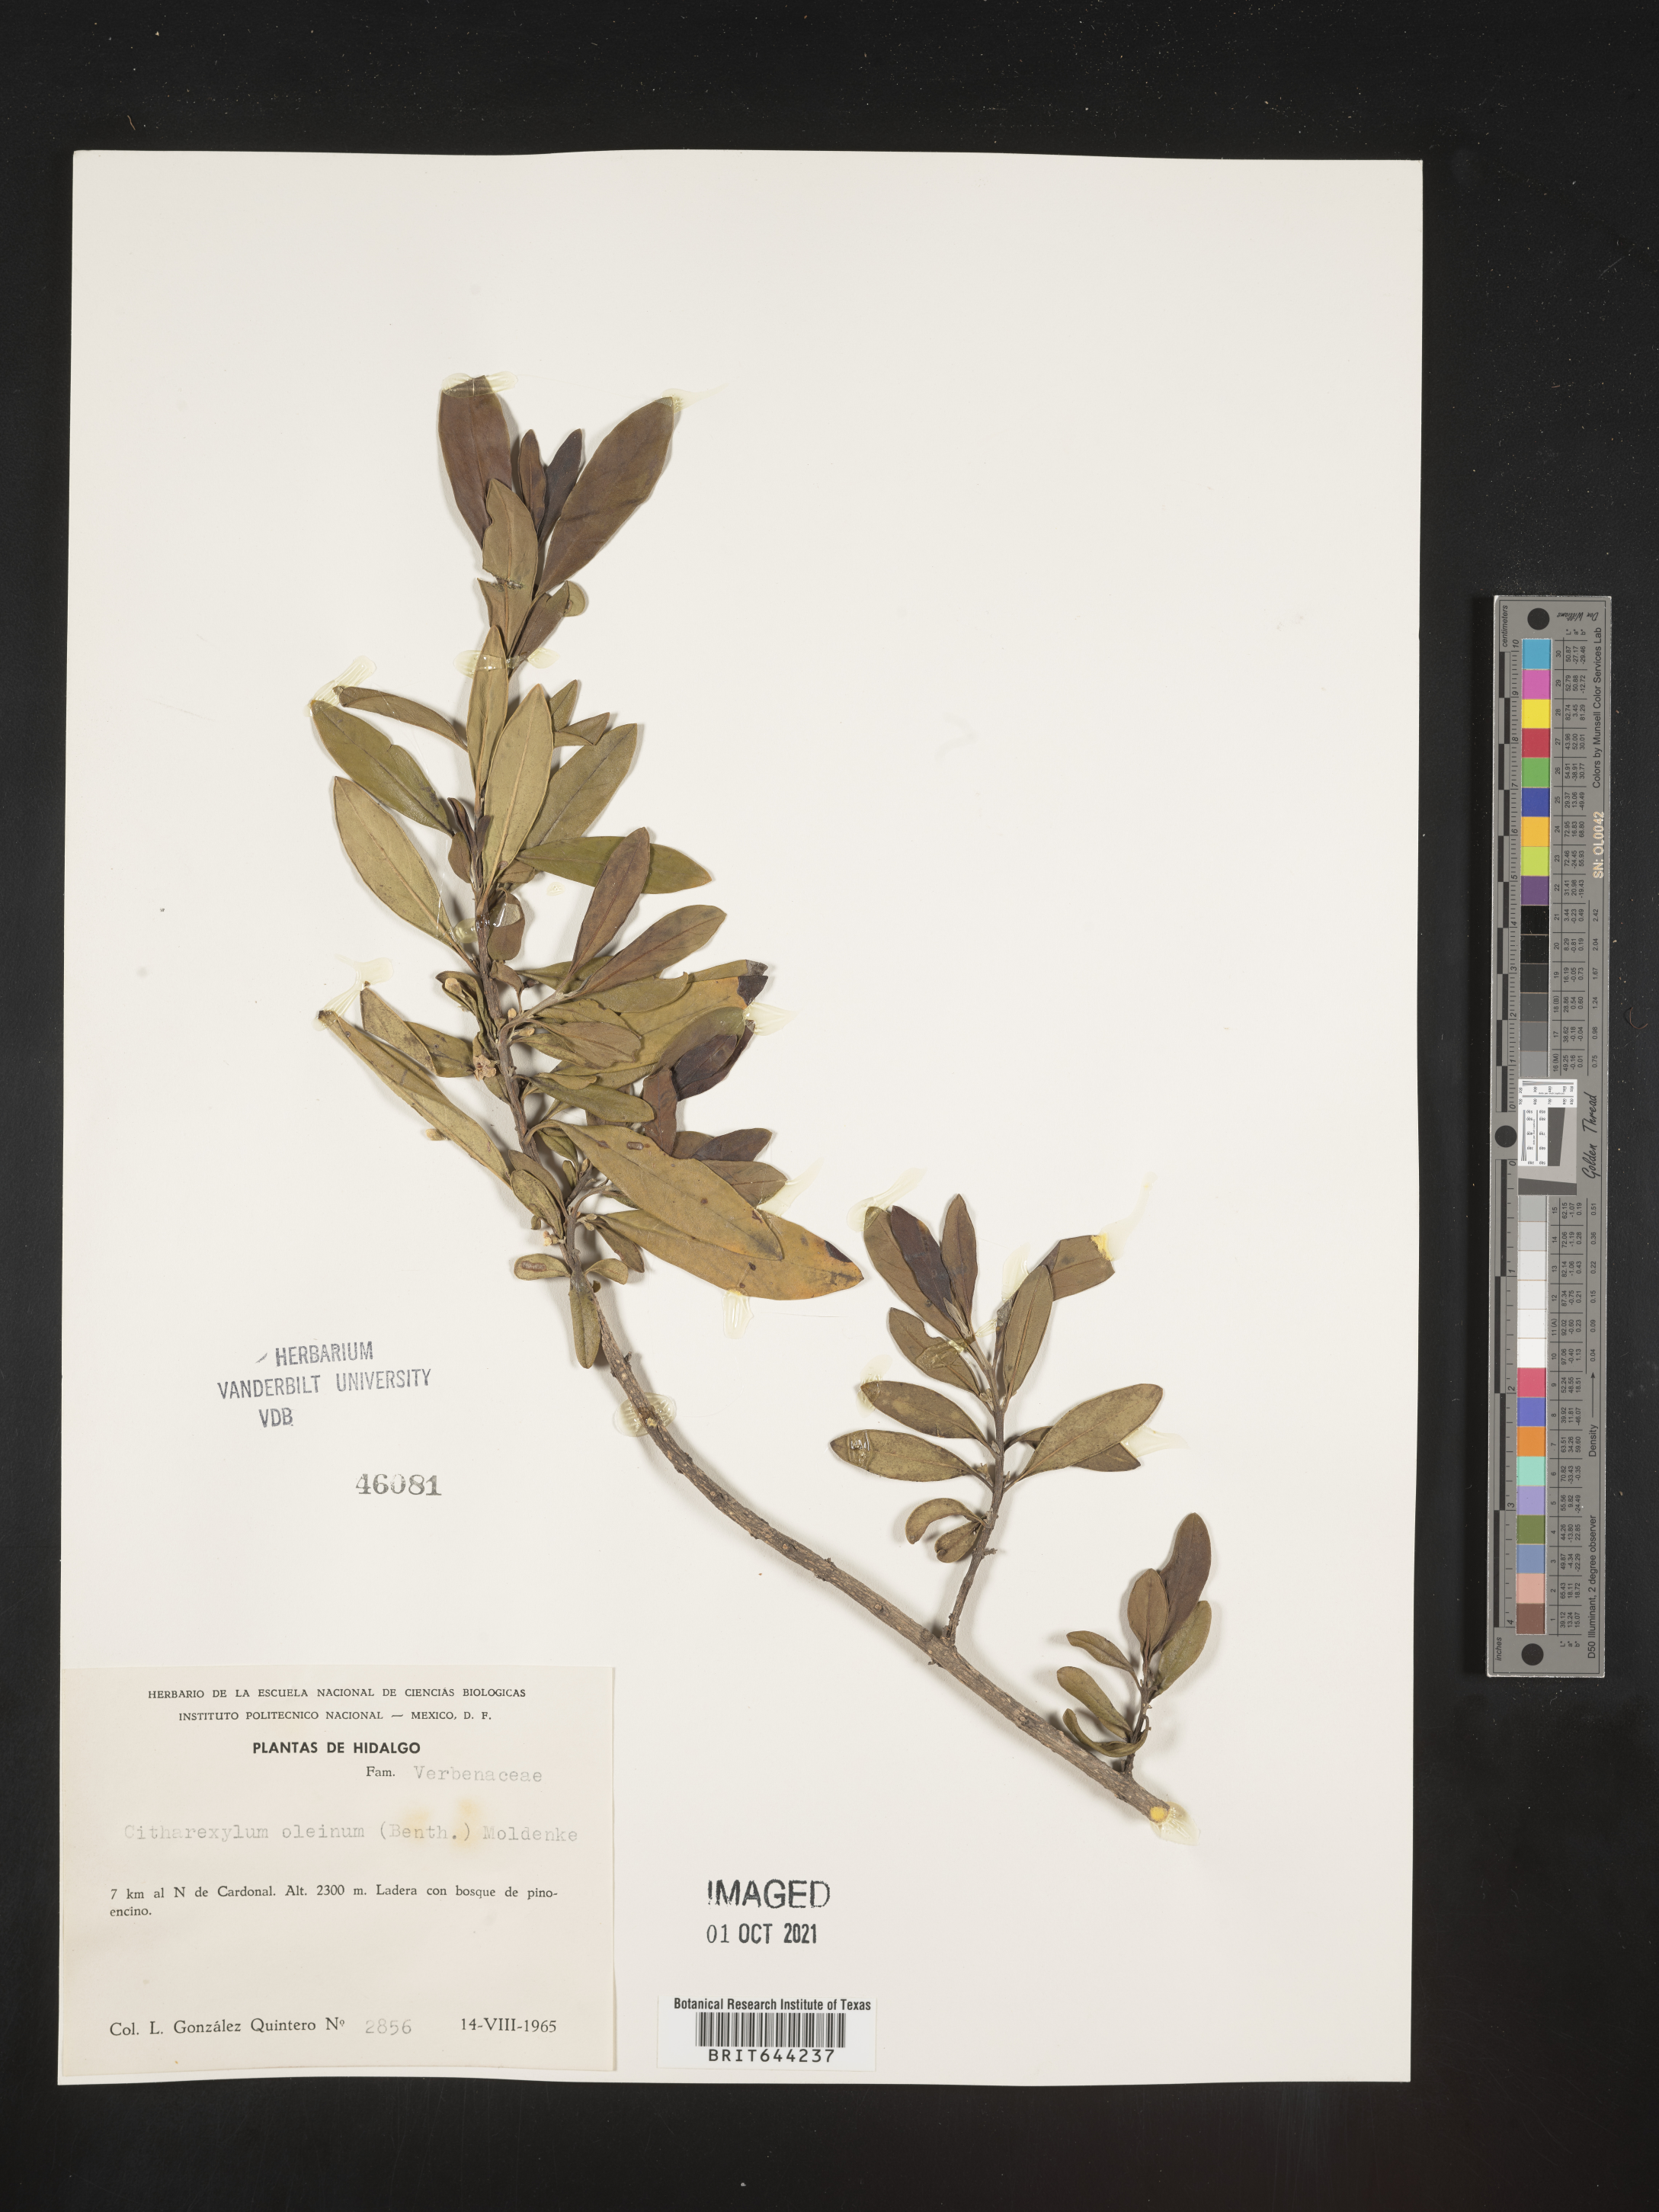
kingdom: Plantae
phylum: Tracheophyta
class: Magnoliopsida
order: Lamiales
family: Verbenaceae
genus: Citharexylum
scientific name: Citharexylum
